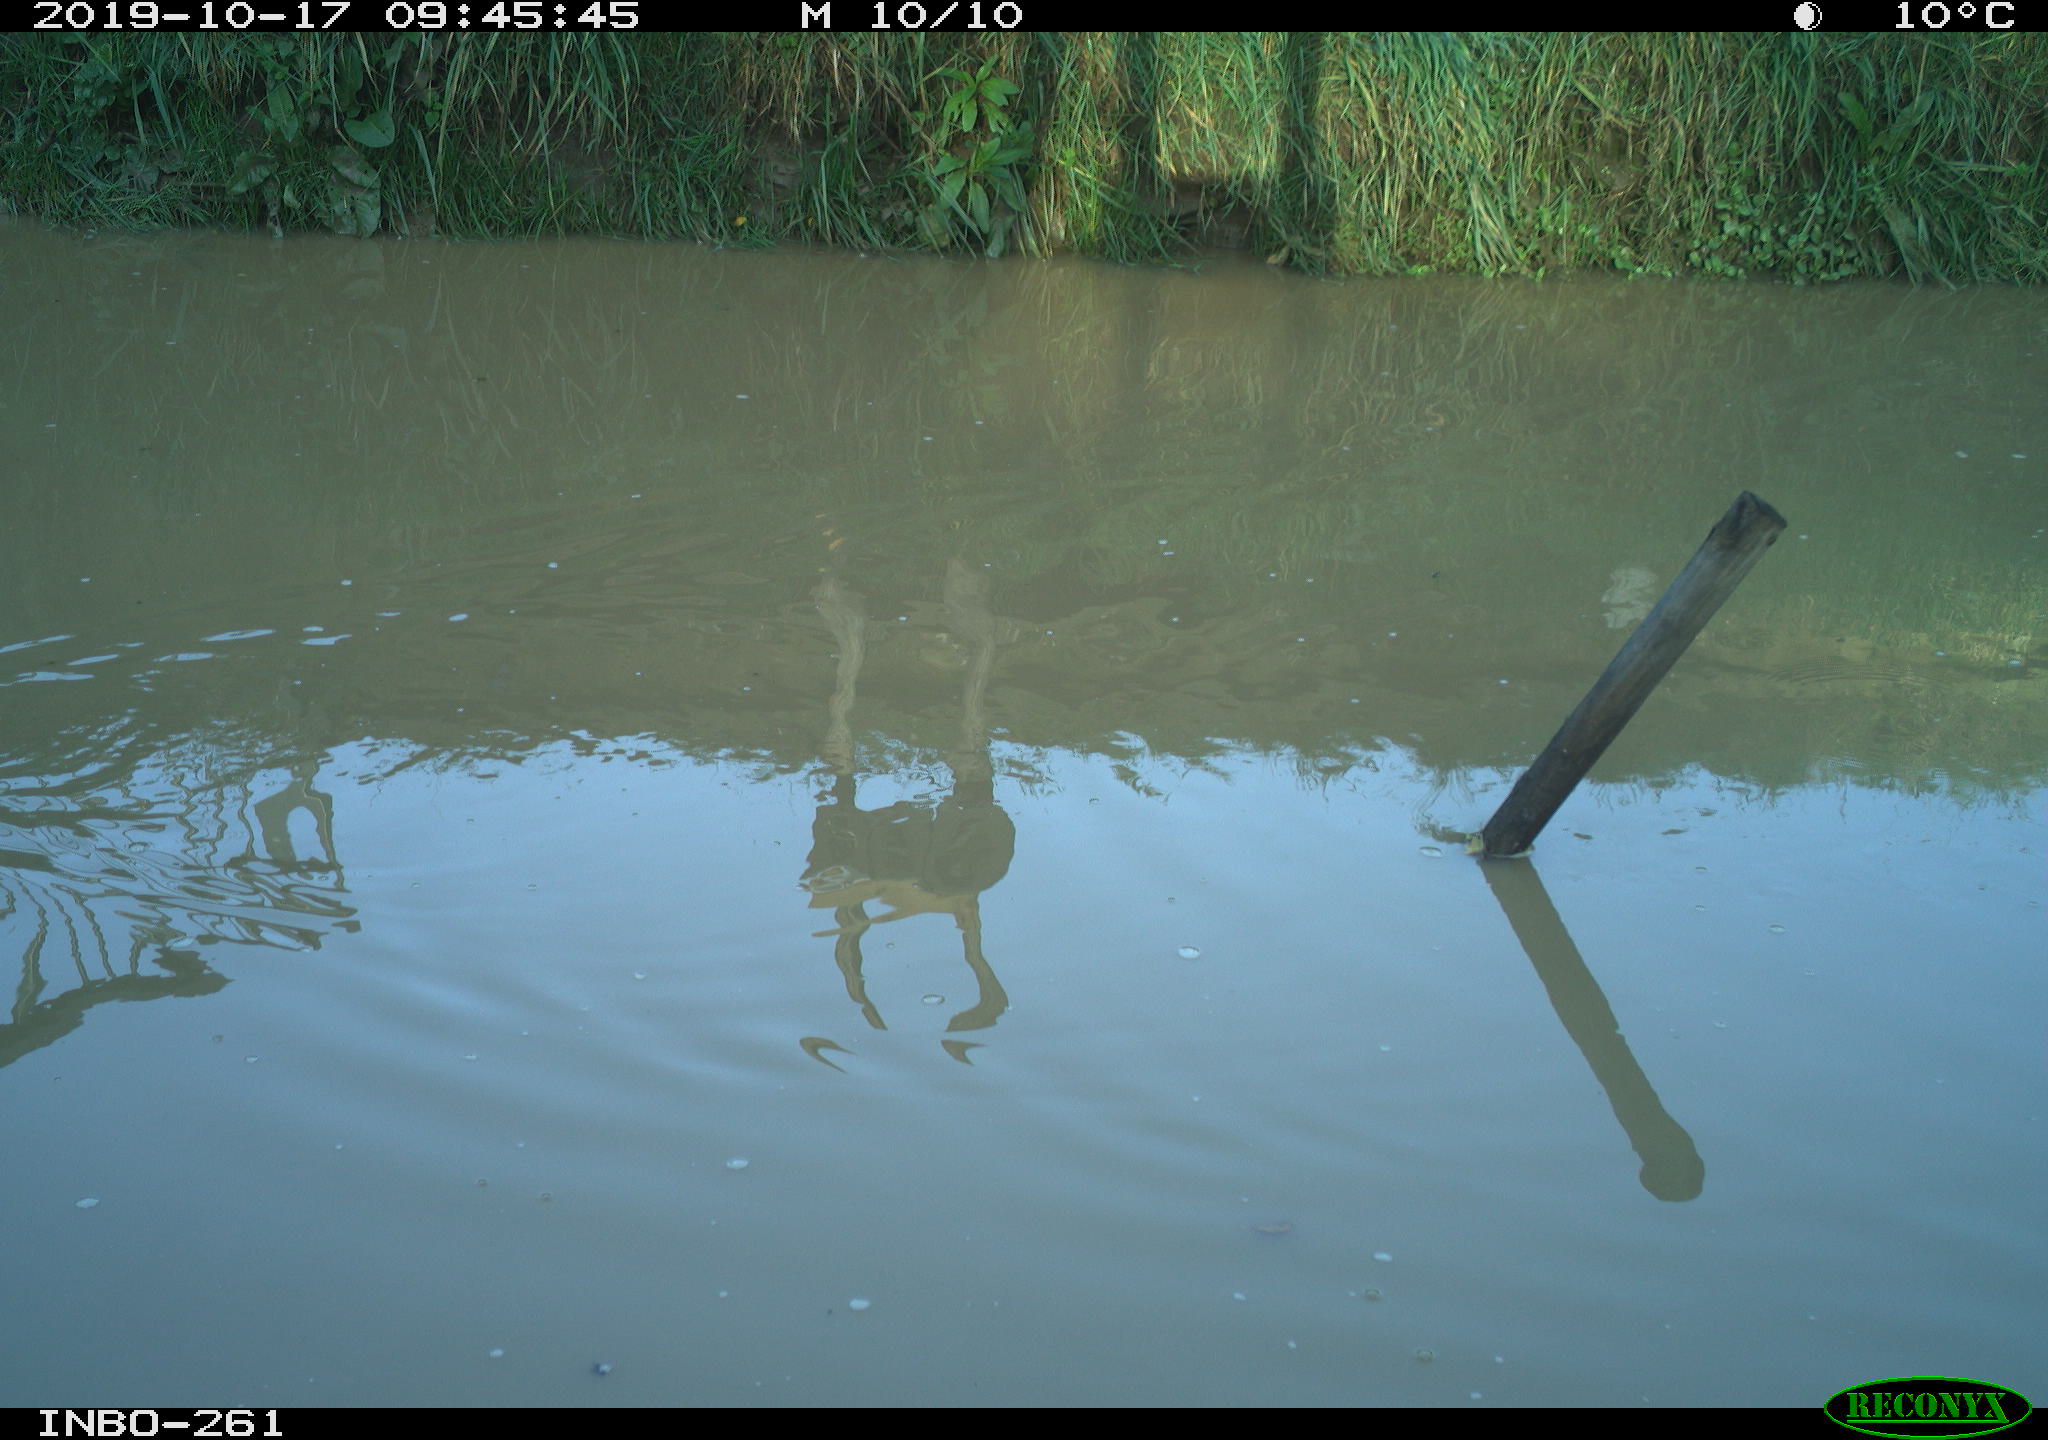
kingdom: Animalia
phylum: Chordata
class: Aves
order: Gruiformes
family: Rallidae
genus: Gallinula
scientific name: Gallinula chloropus
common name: Common moorhen
